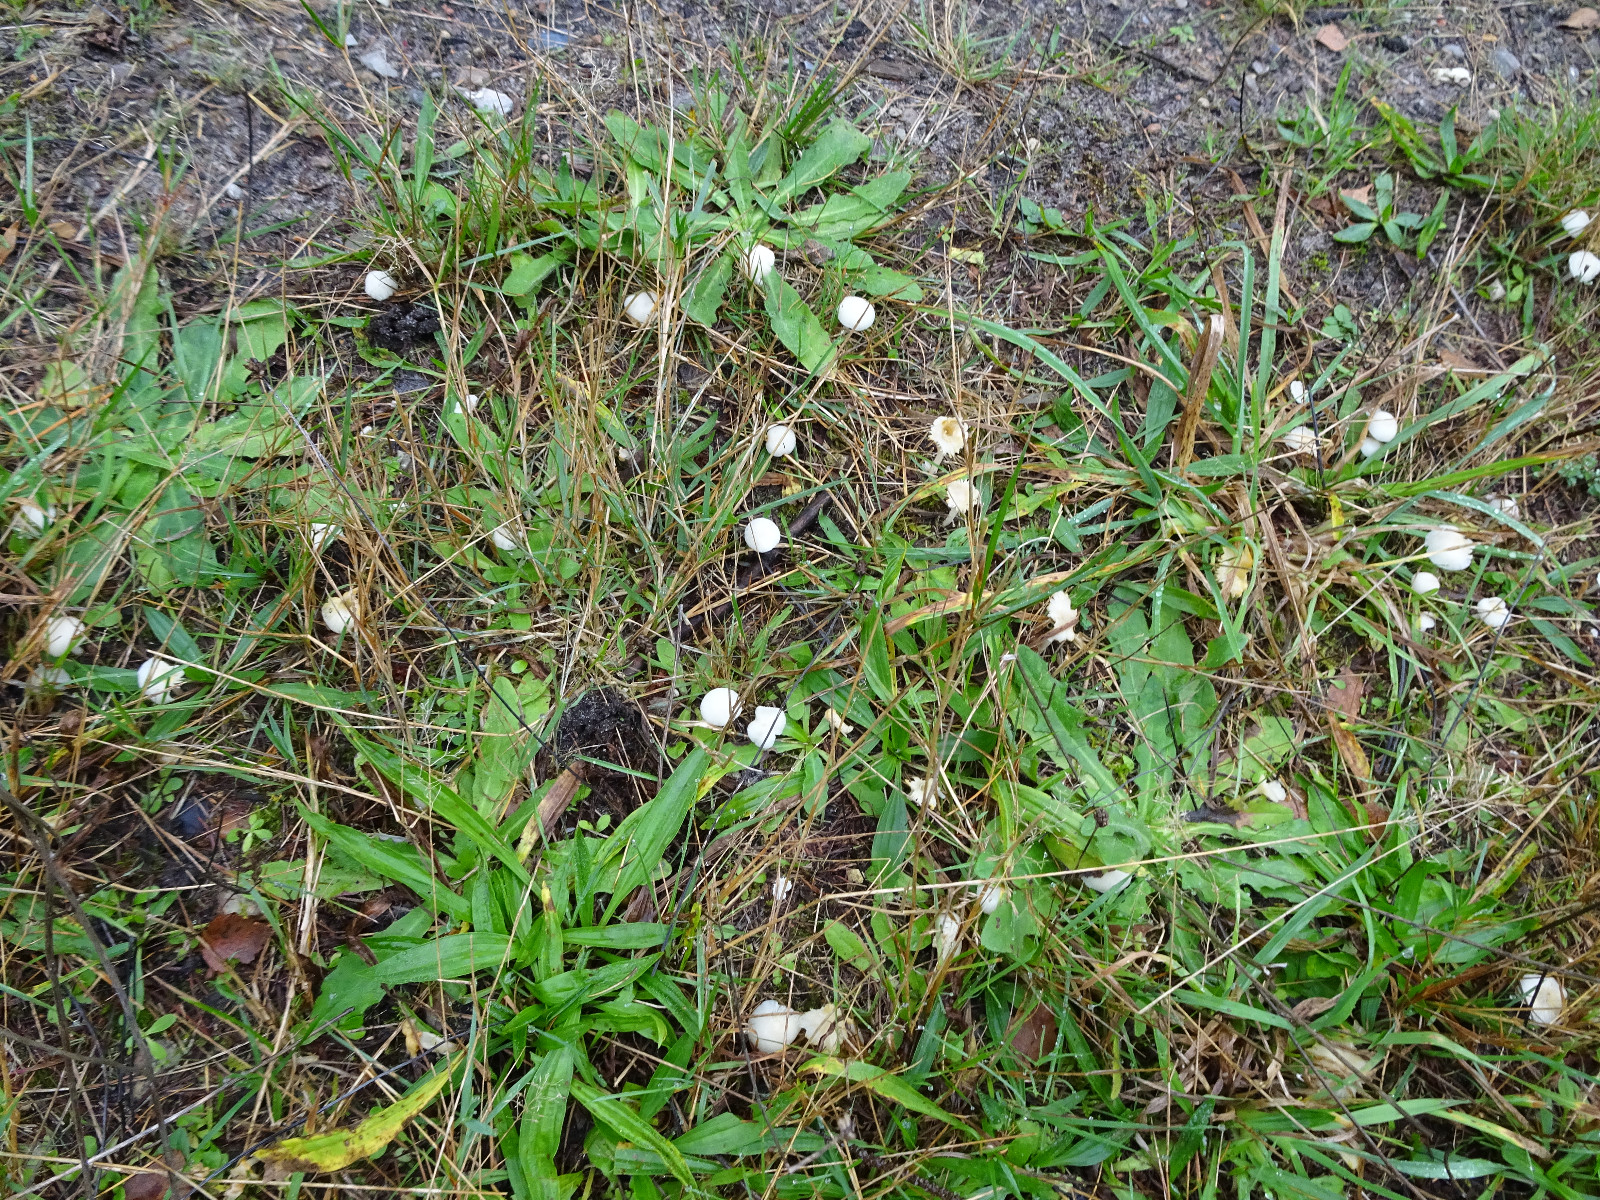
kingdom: Fungi
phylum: Basidiomycota
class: Agaricomycetes
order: Agaricales
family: Hygrophoraceae
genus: Cuphophyllus
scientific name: Cuphophyllus virgineus
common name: snehvid vokshat
